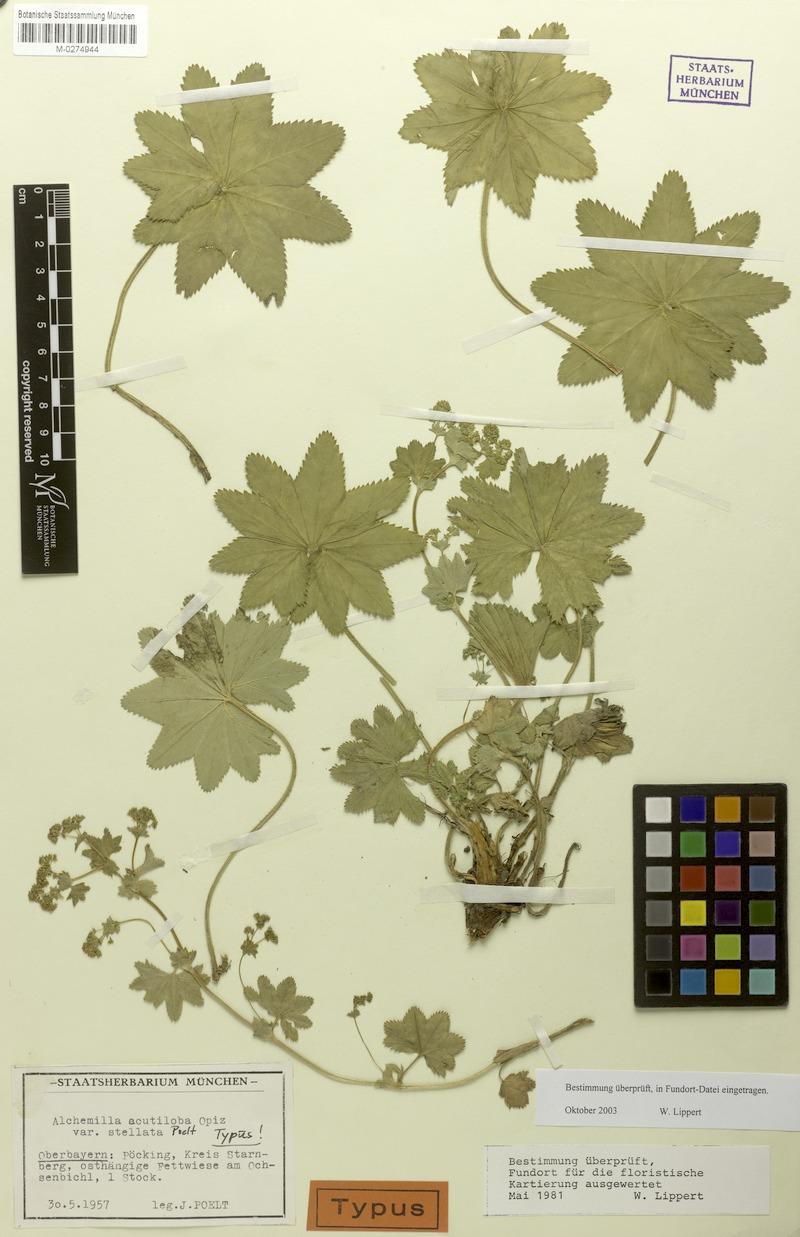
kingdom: Plantae
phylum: Tracheophyta
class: Magnoliopsida
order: Rosales
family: Rosaceae
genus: Alchemilla
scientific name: Alchemilla vulgaris
